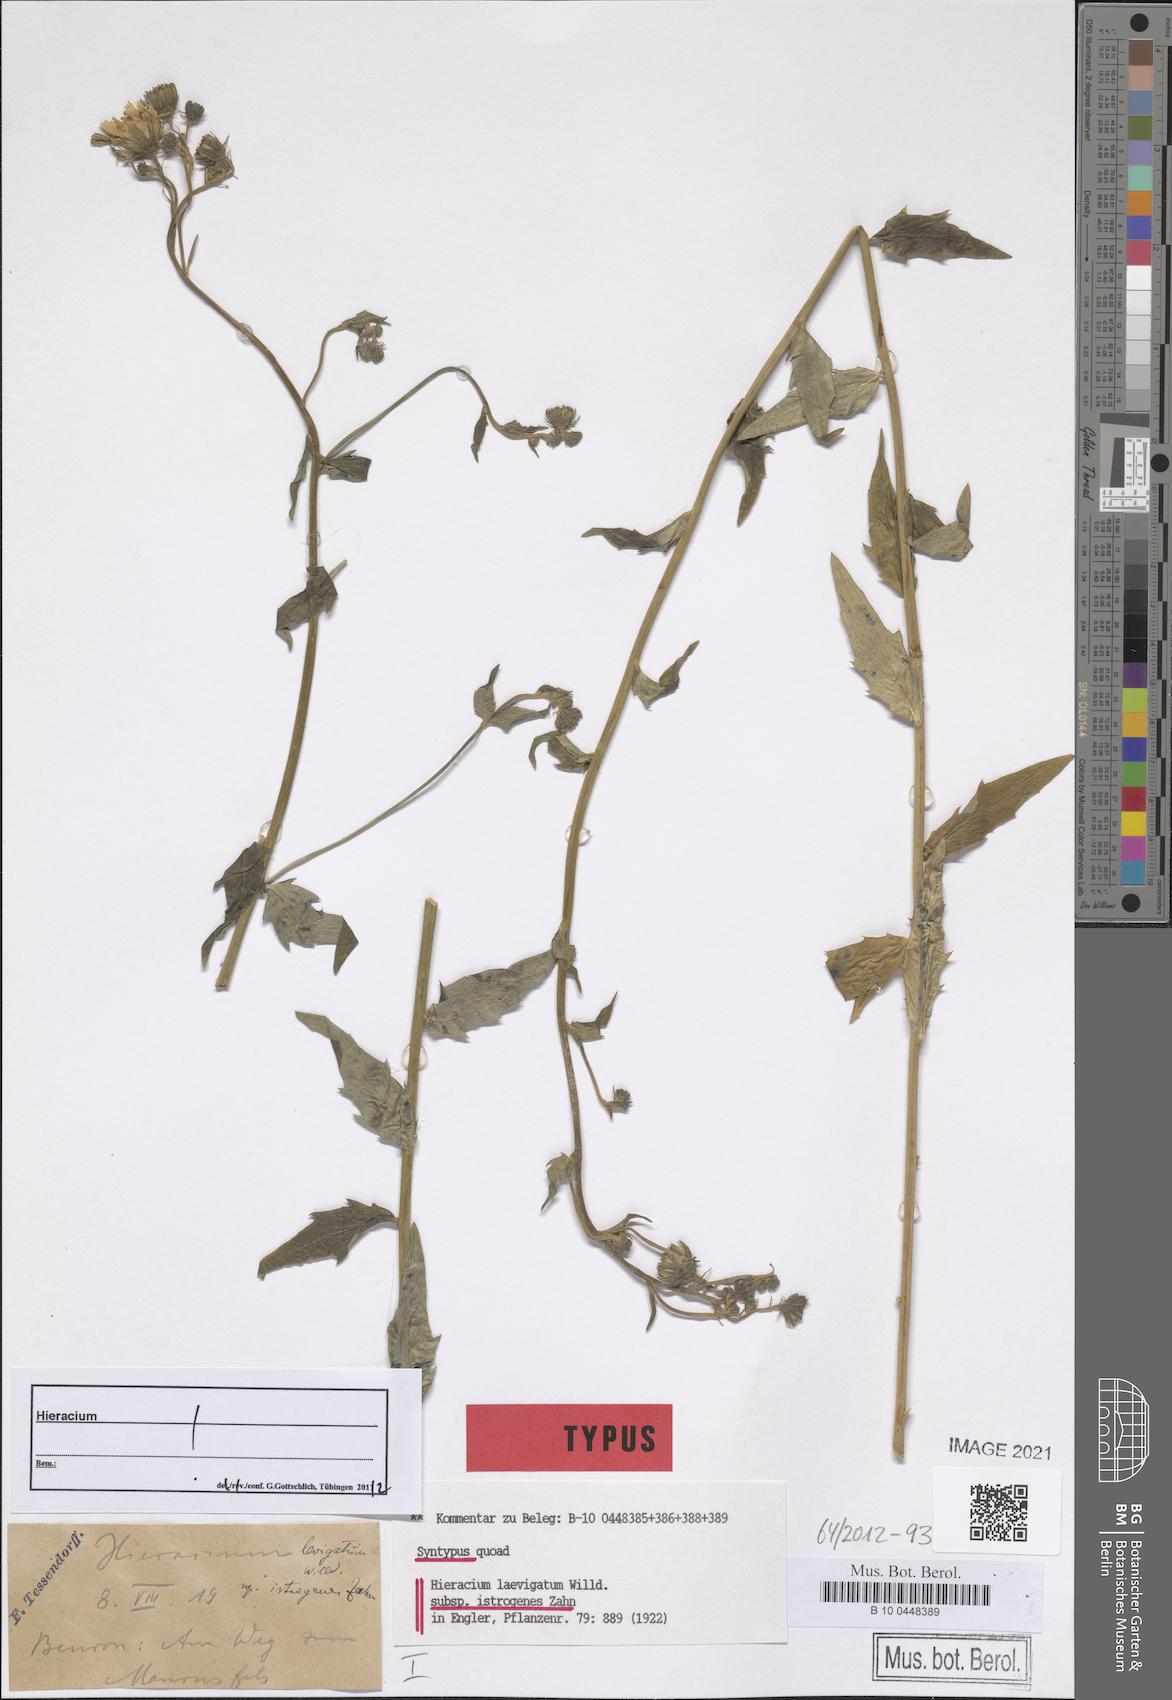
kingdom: Plantae
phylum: Tracheophyta
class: Magnoliopsida
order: Asterales
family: Asteraceae
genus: Hieracium
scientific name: Hieracium laevigatum
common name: Smooth hawkweed
